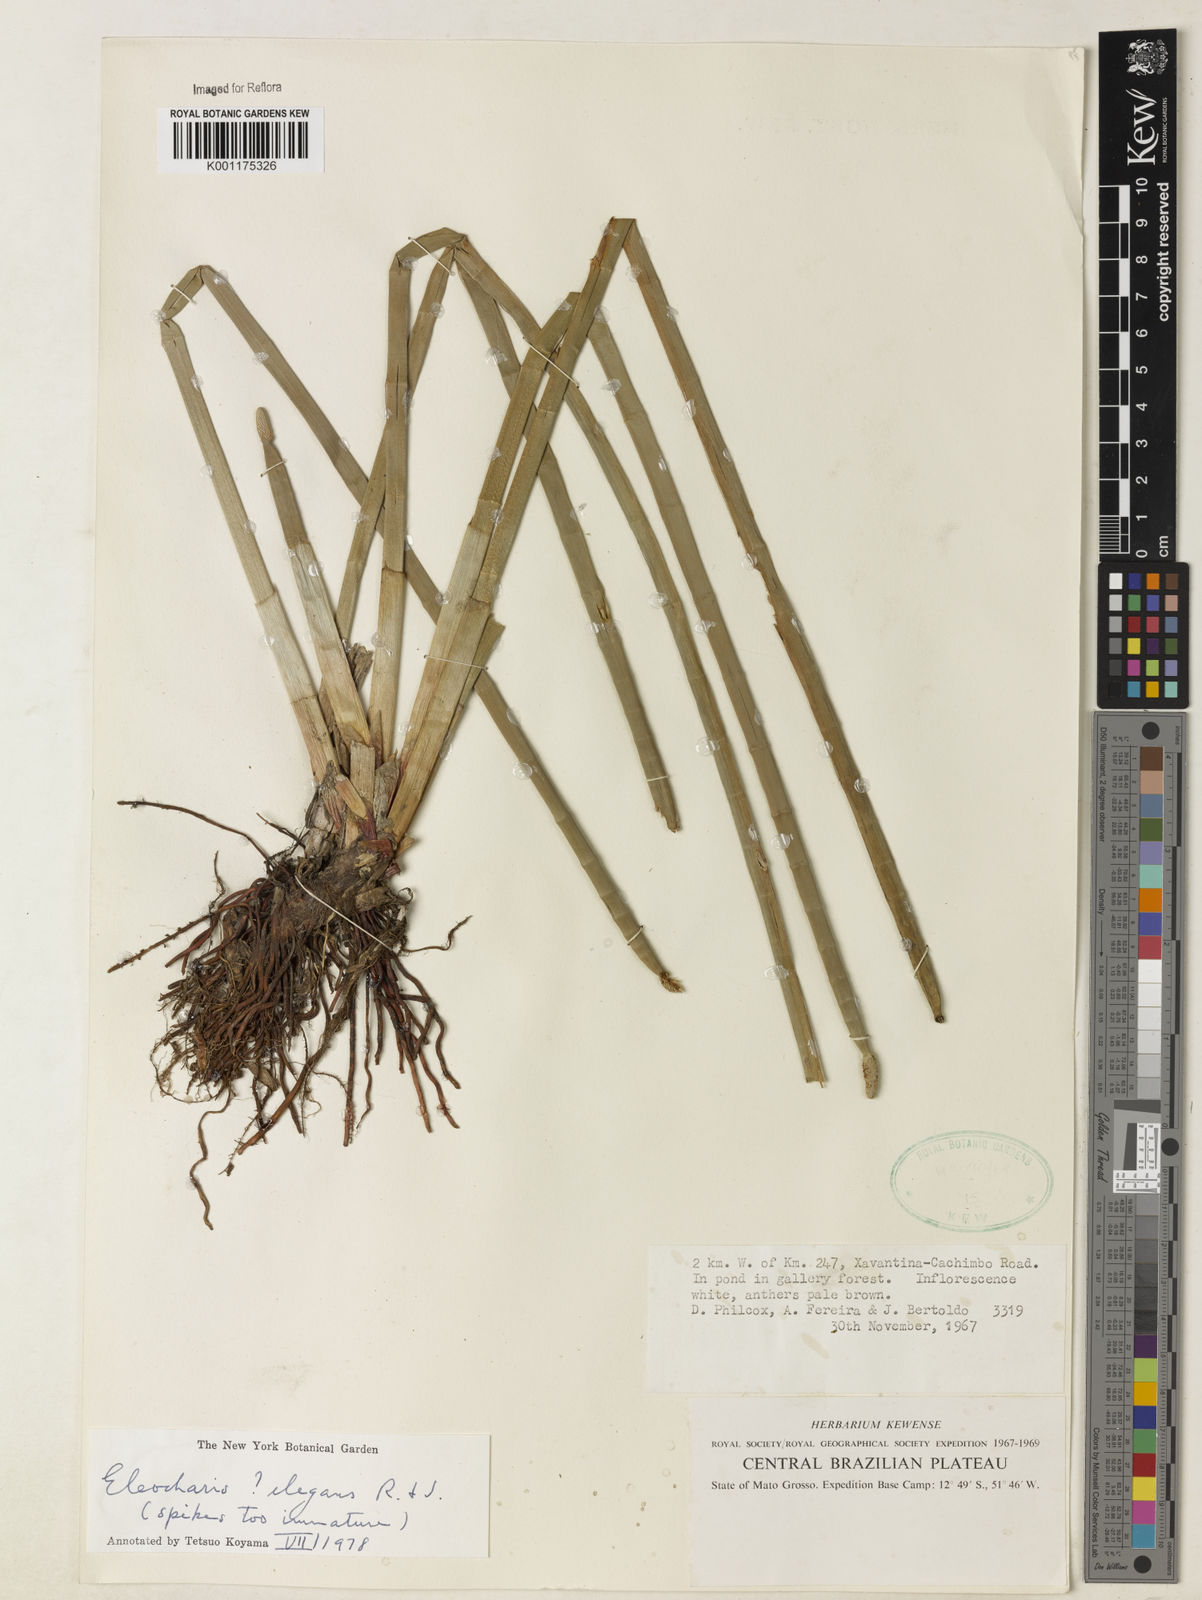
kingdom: Plantae
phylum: Tracheophyta
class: Liliopsida
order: Poales
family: Cyperaceae
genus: Eleocharis
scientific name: Eleocharis elegans
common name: Elegant spike-rush
